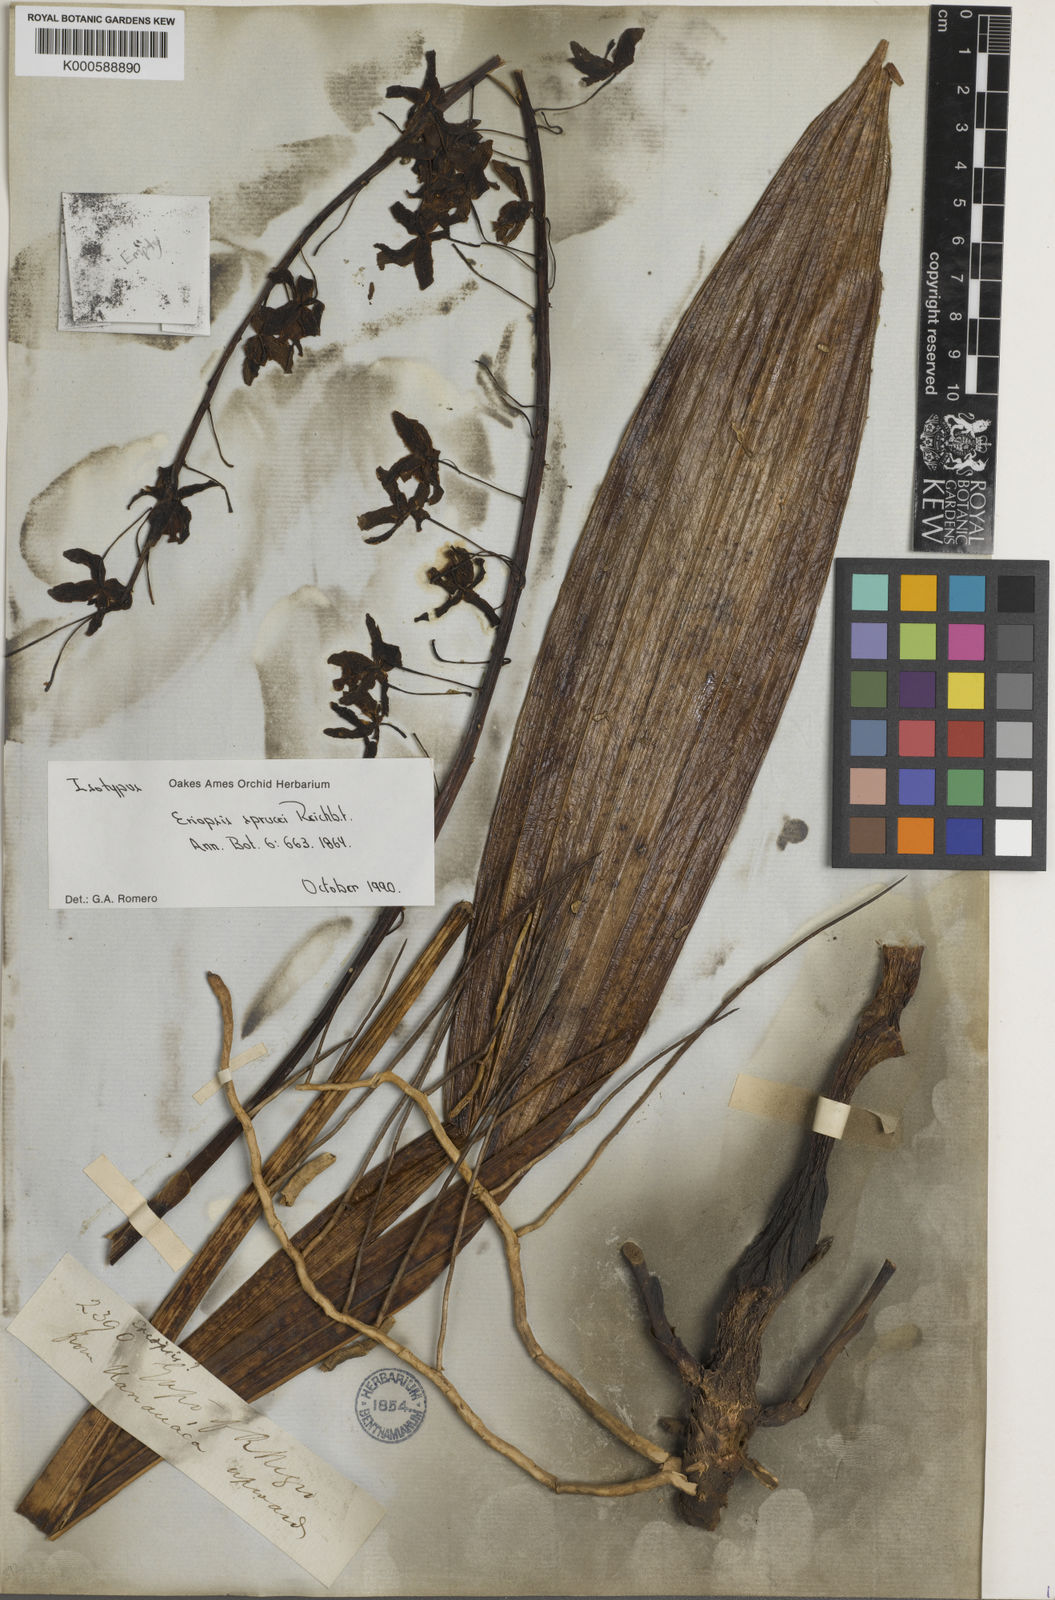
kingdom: Plantae
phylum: Tracheophyta
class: Liliopsida
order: Asparagales
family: Orchidaceae
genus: Eriopsis
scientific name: Eriopsis altissima
